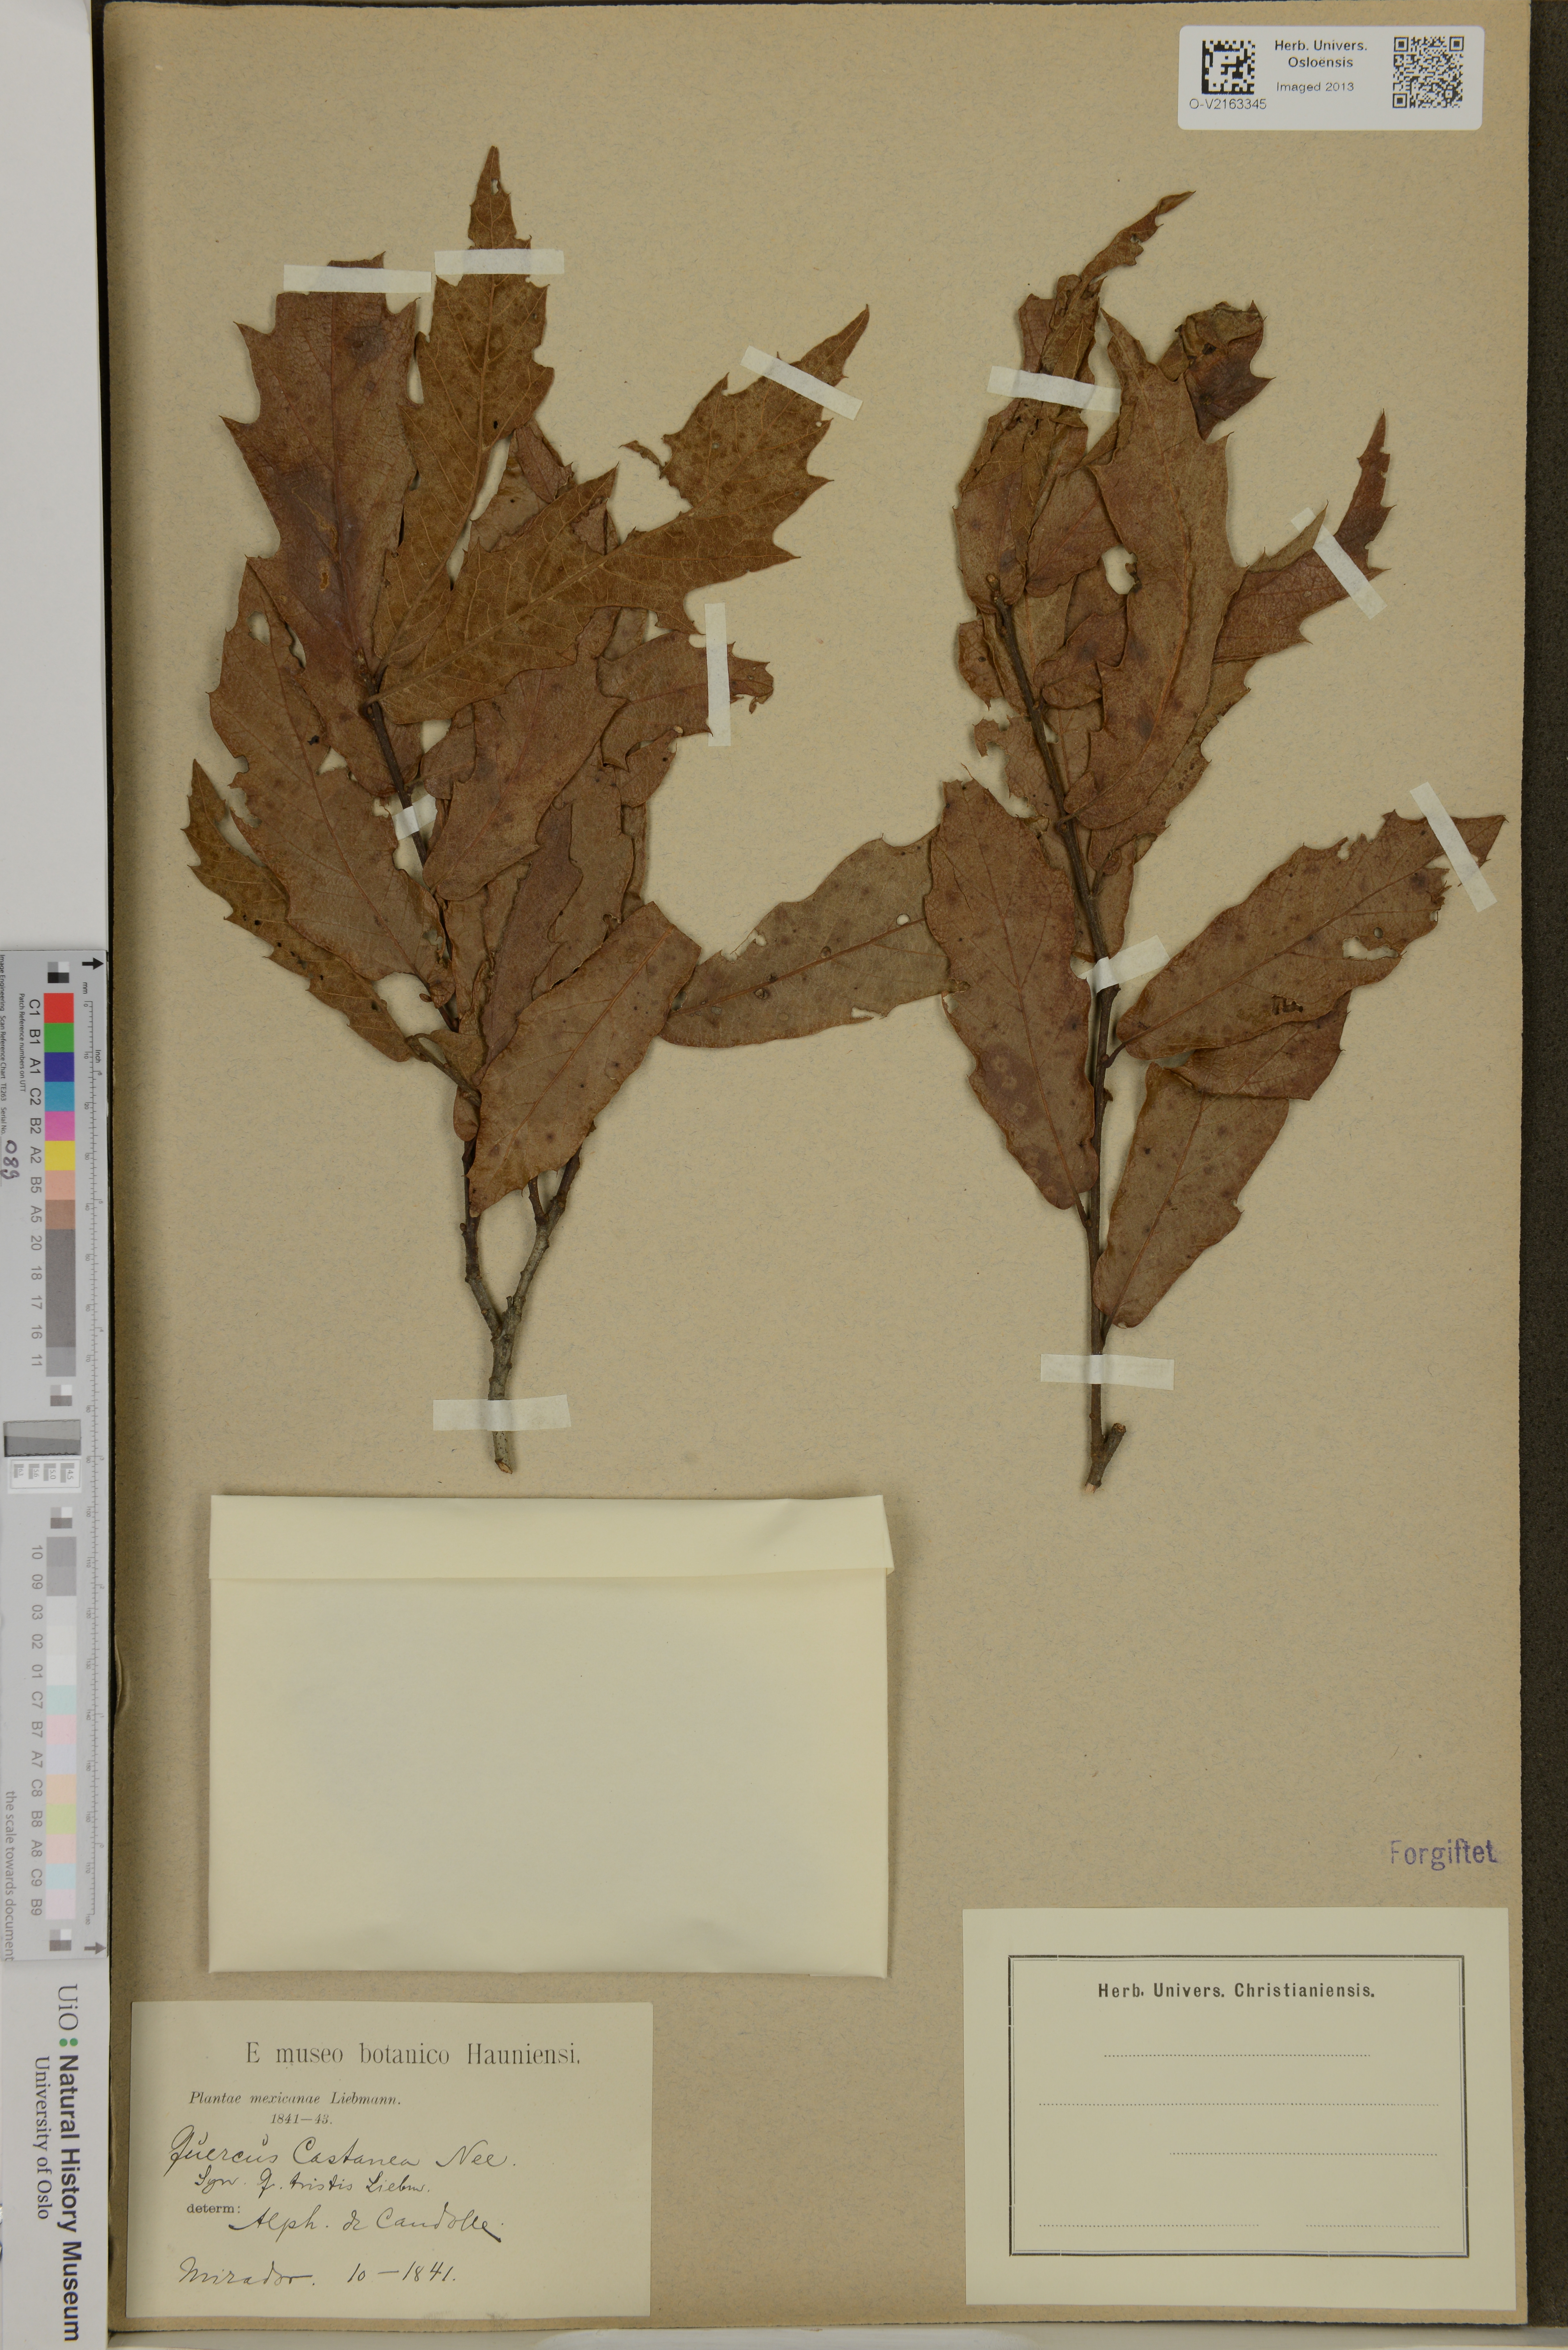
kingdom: Plantae
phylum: Tracheophyta
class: Magnoliopsida
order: Fagales
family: Fagaceae
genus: Quercus
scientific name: Quercus castanea
